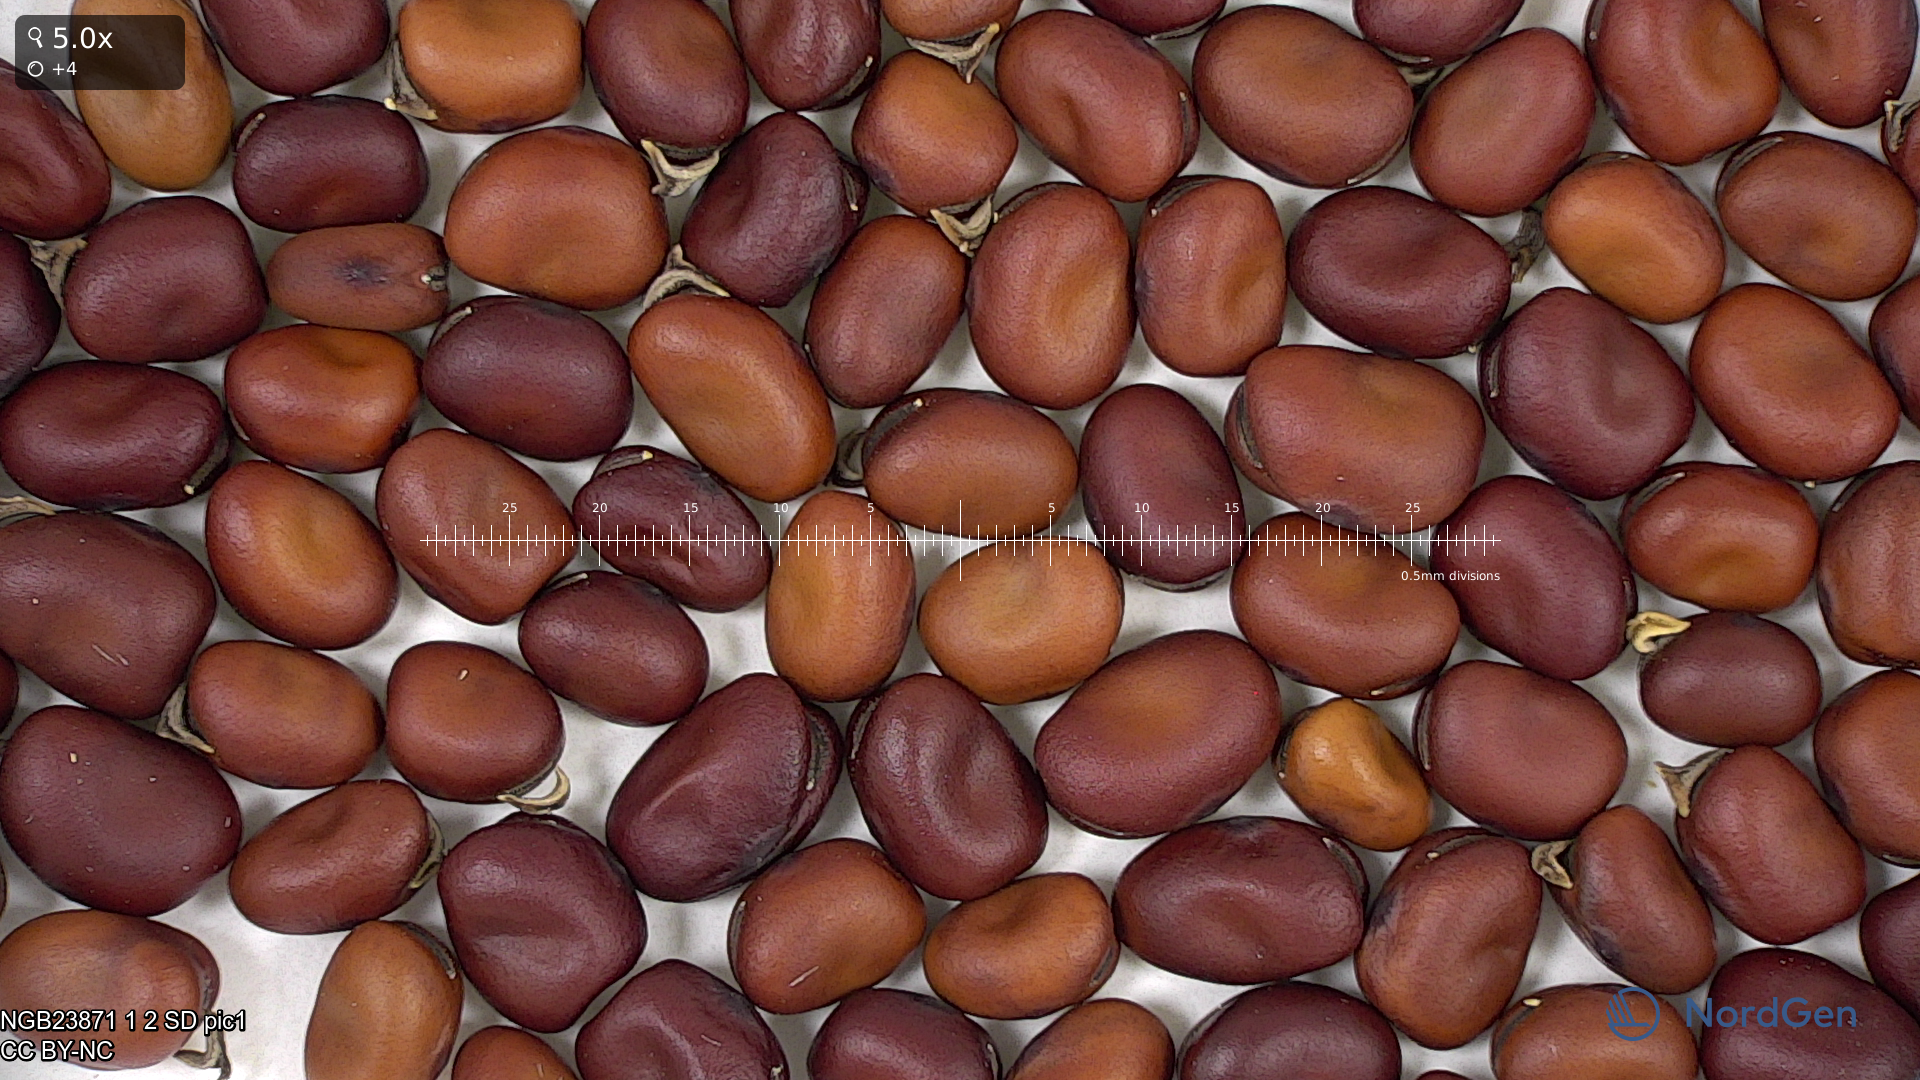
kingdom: Plantae
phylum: Tracheophyta
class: Magnoliopsida
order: Fabales
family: Fabaceae
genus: Vicia
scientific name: Vicia faba
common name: Broad bean
